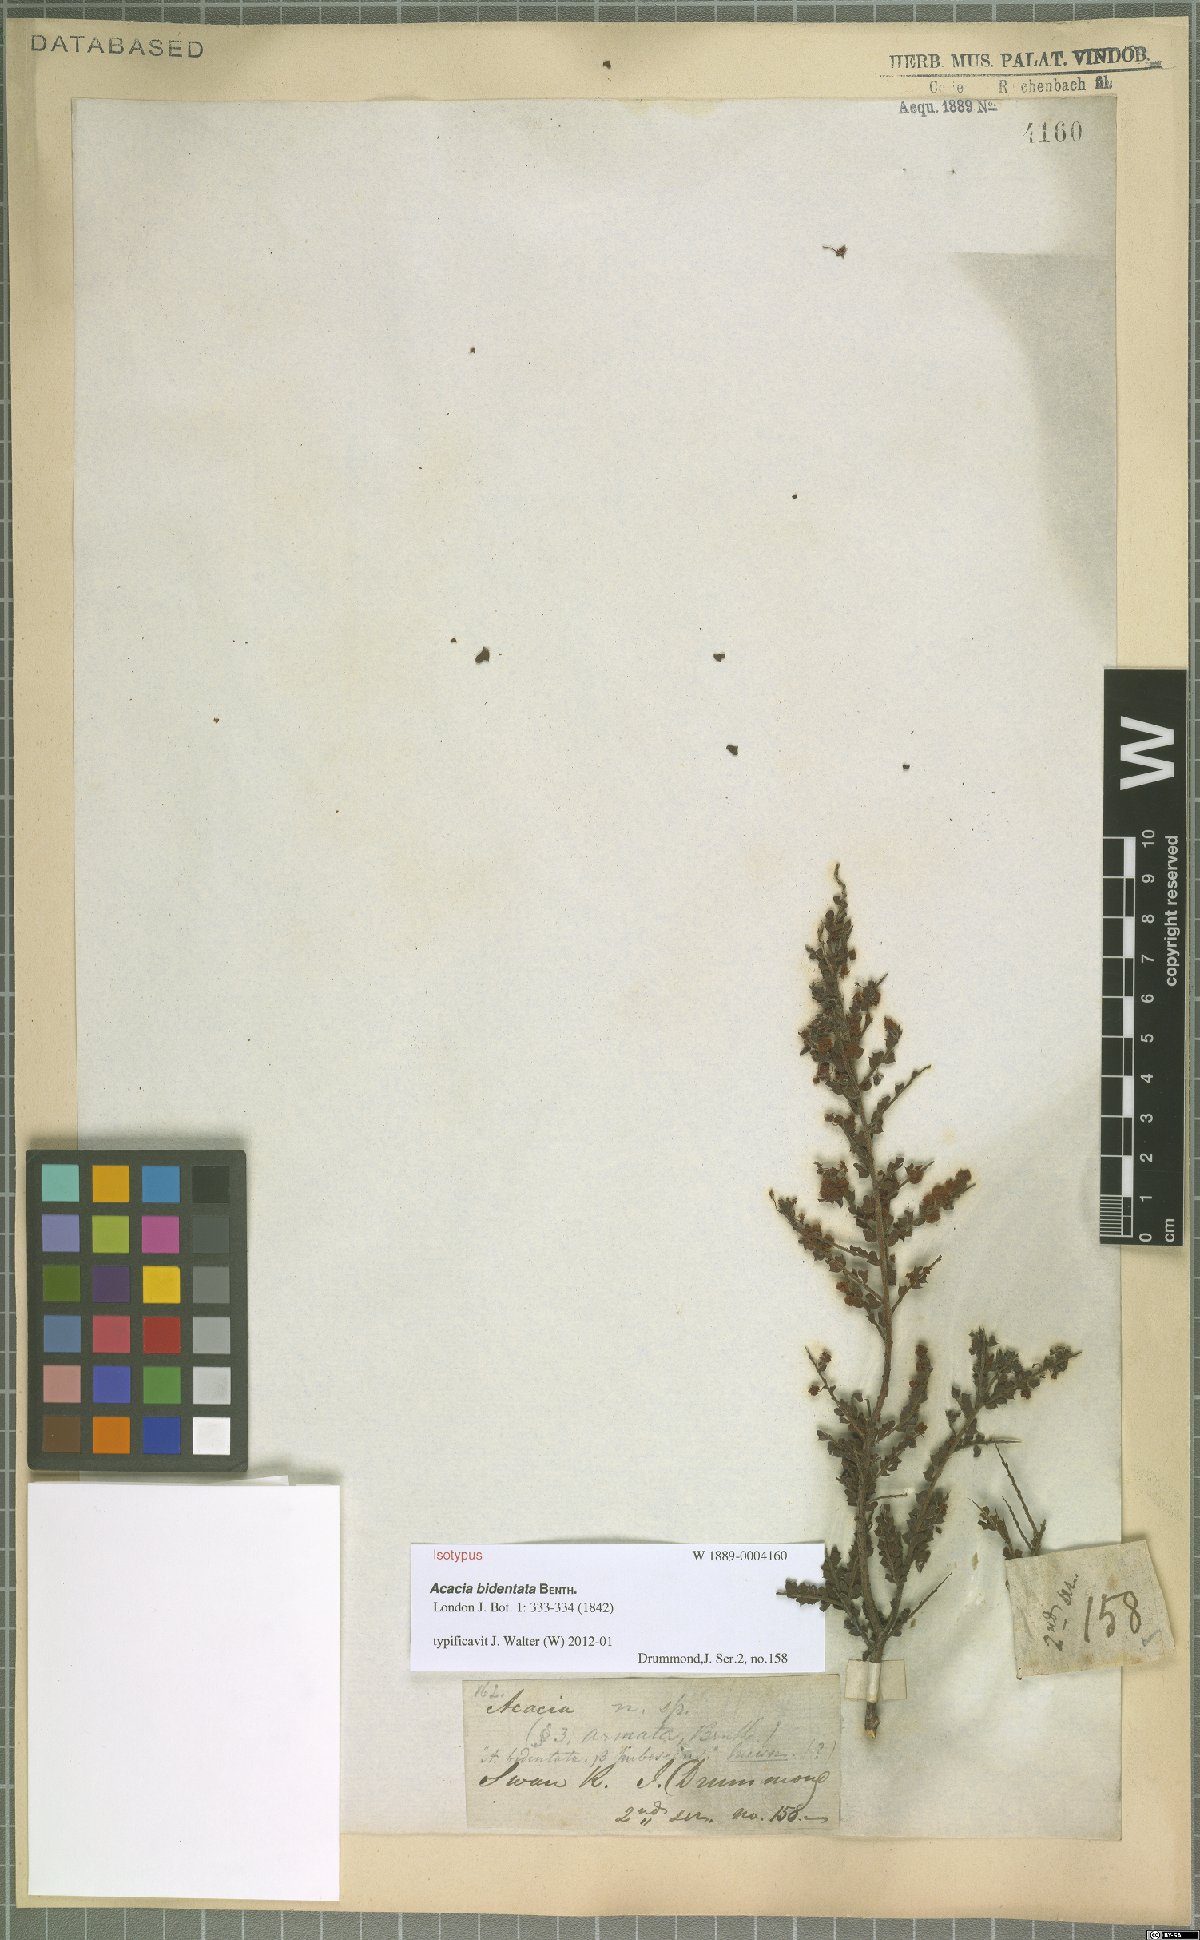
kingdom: Plantae
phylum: Tracheophyta
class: Magnoliopsida
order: Fabales
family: Fabaceae
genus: Acacia
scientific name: Acacia bidentata
